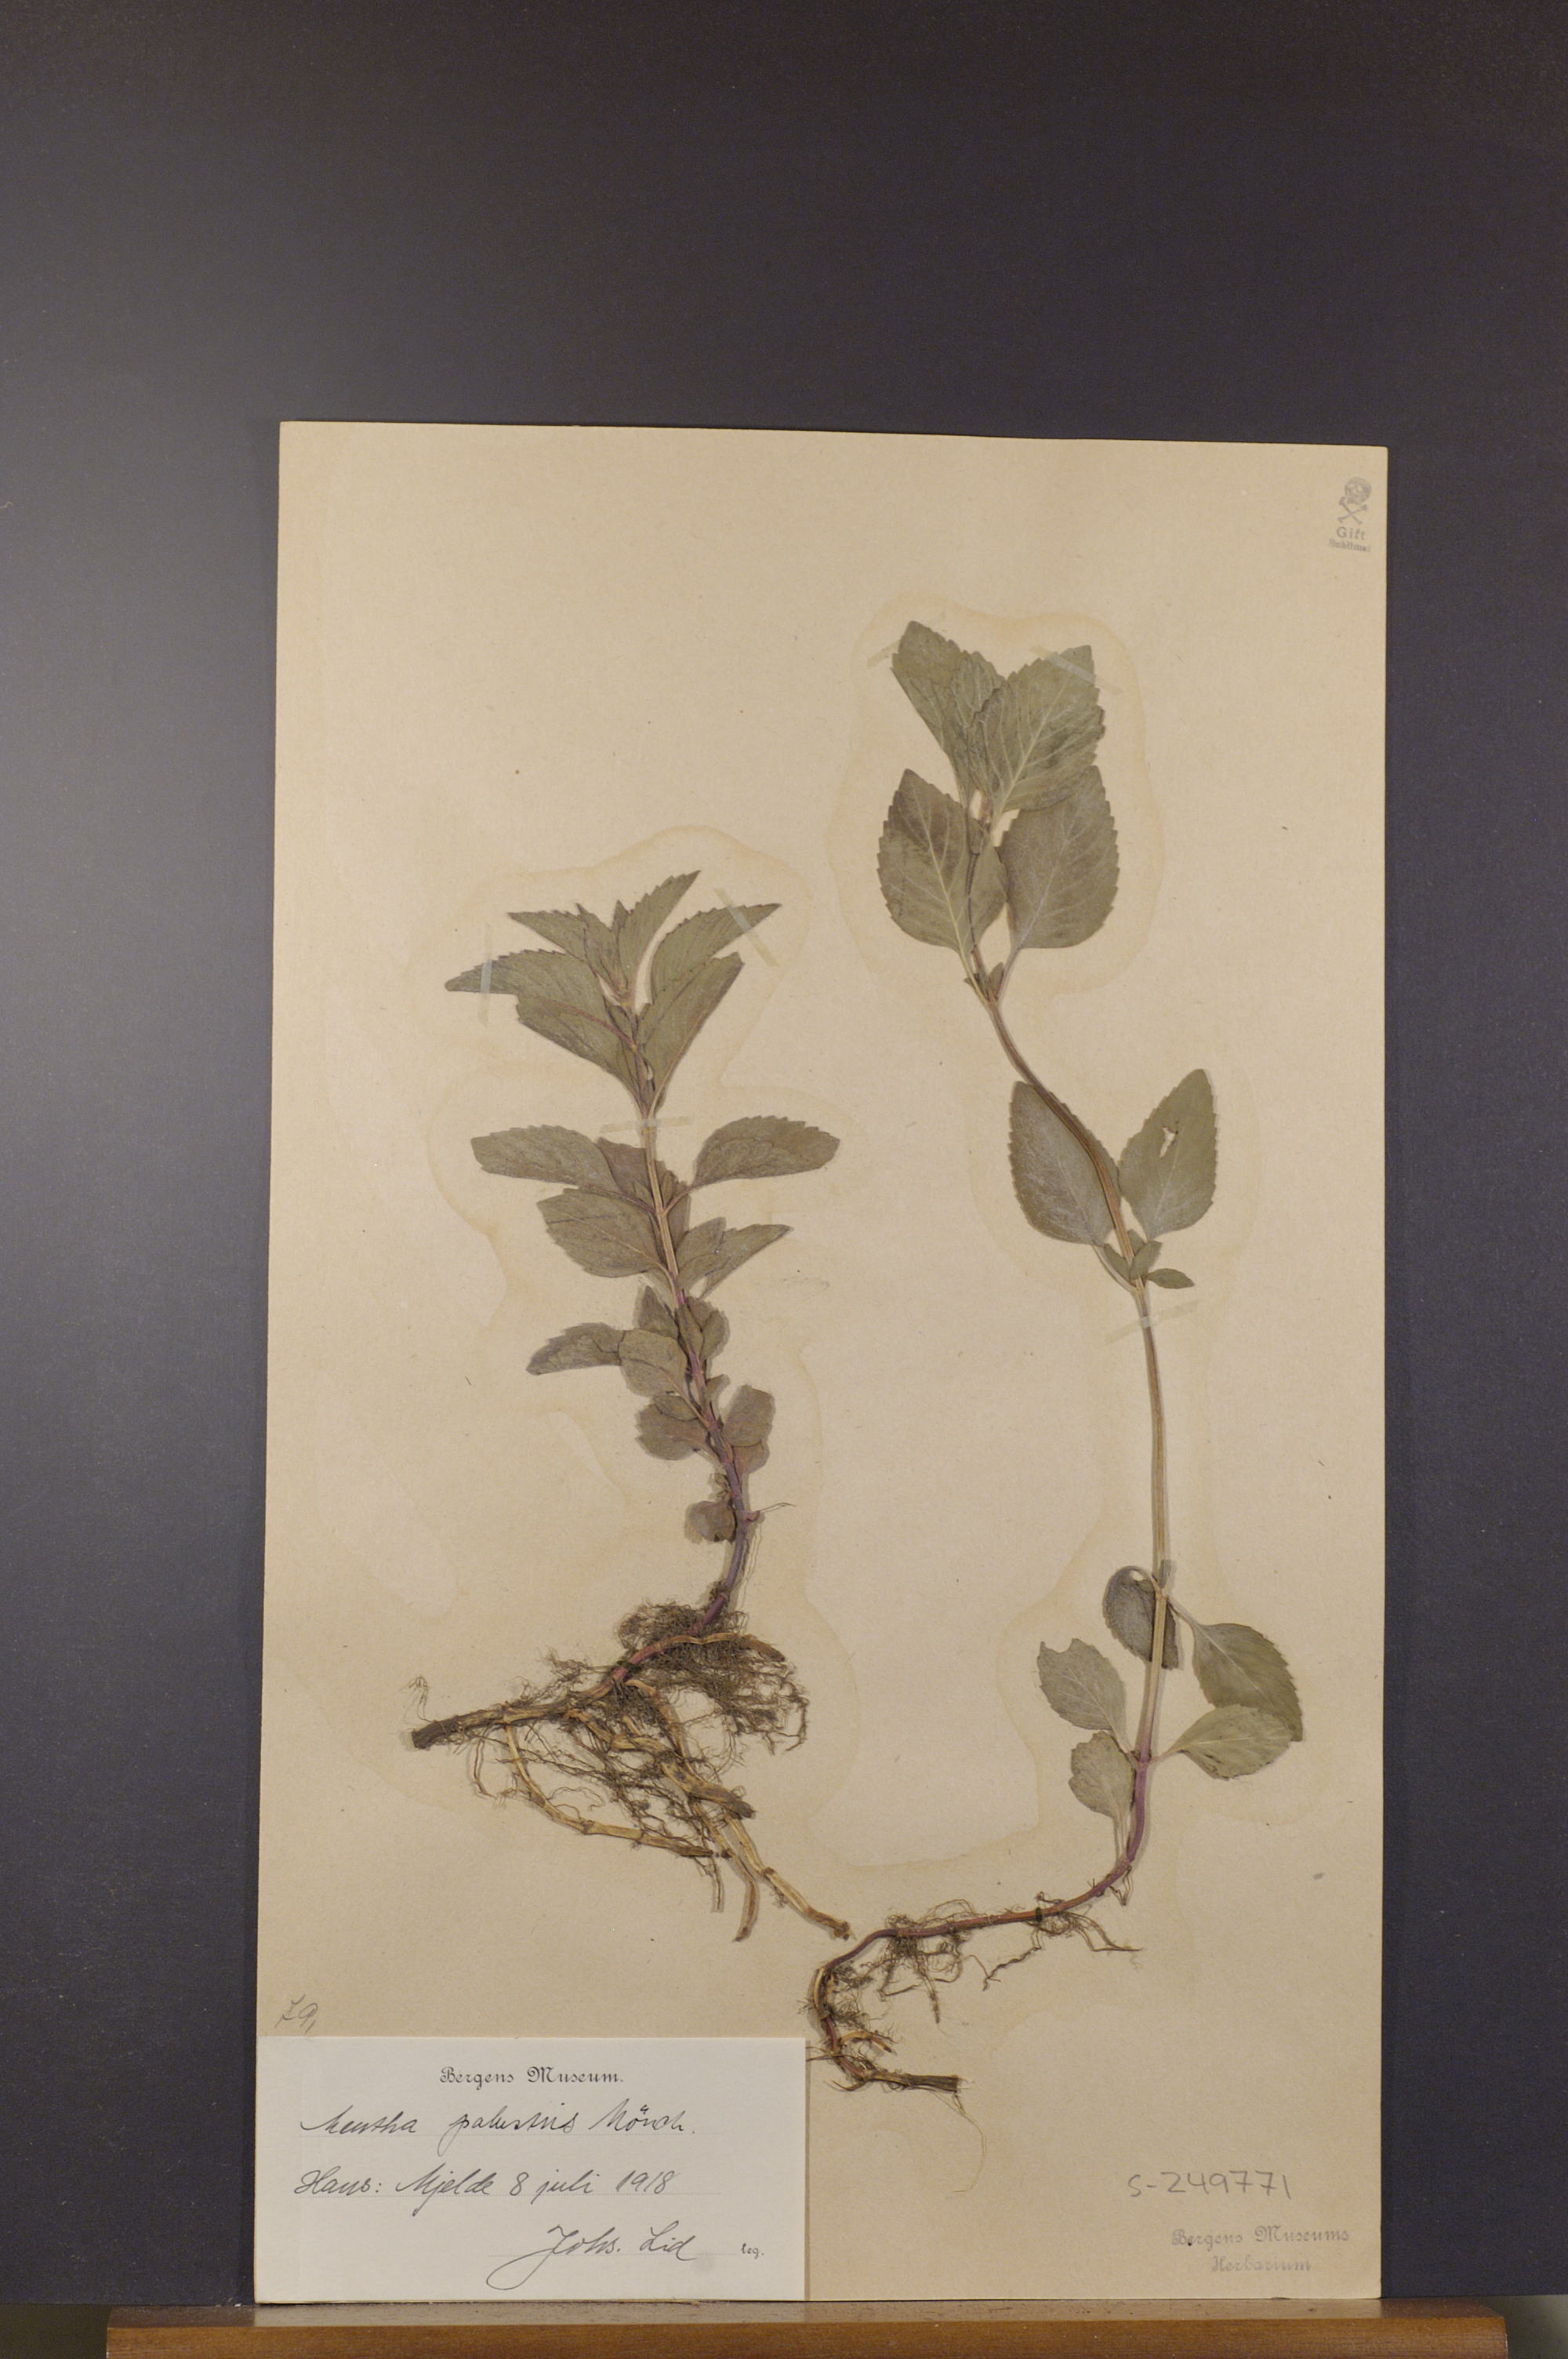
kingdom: Plantae
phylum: Tracheophyta
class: Magnoliopsida
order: Lamiales
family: Lamiaceae
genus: Mentha
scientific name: Mentha arvensis
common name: Corn mint
